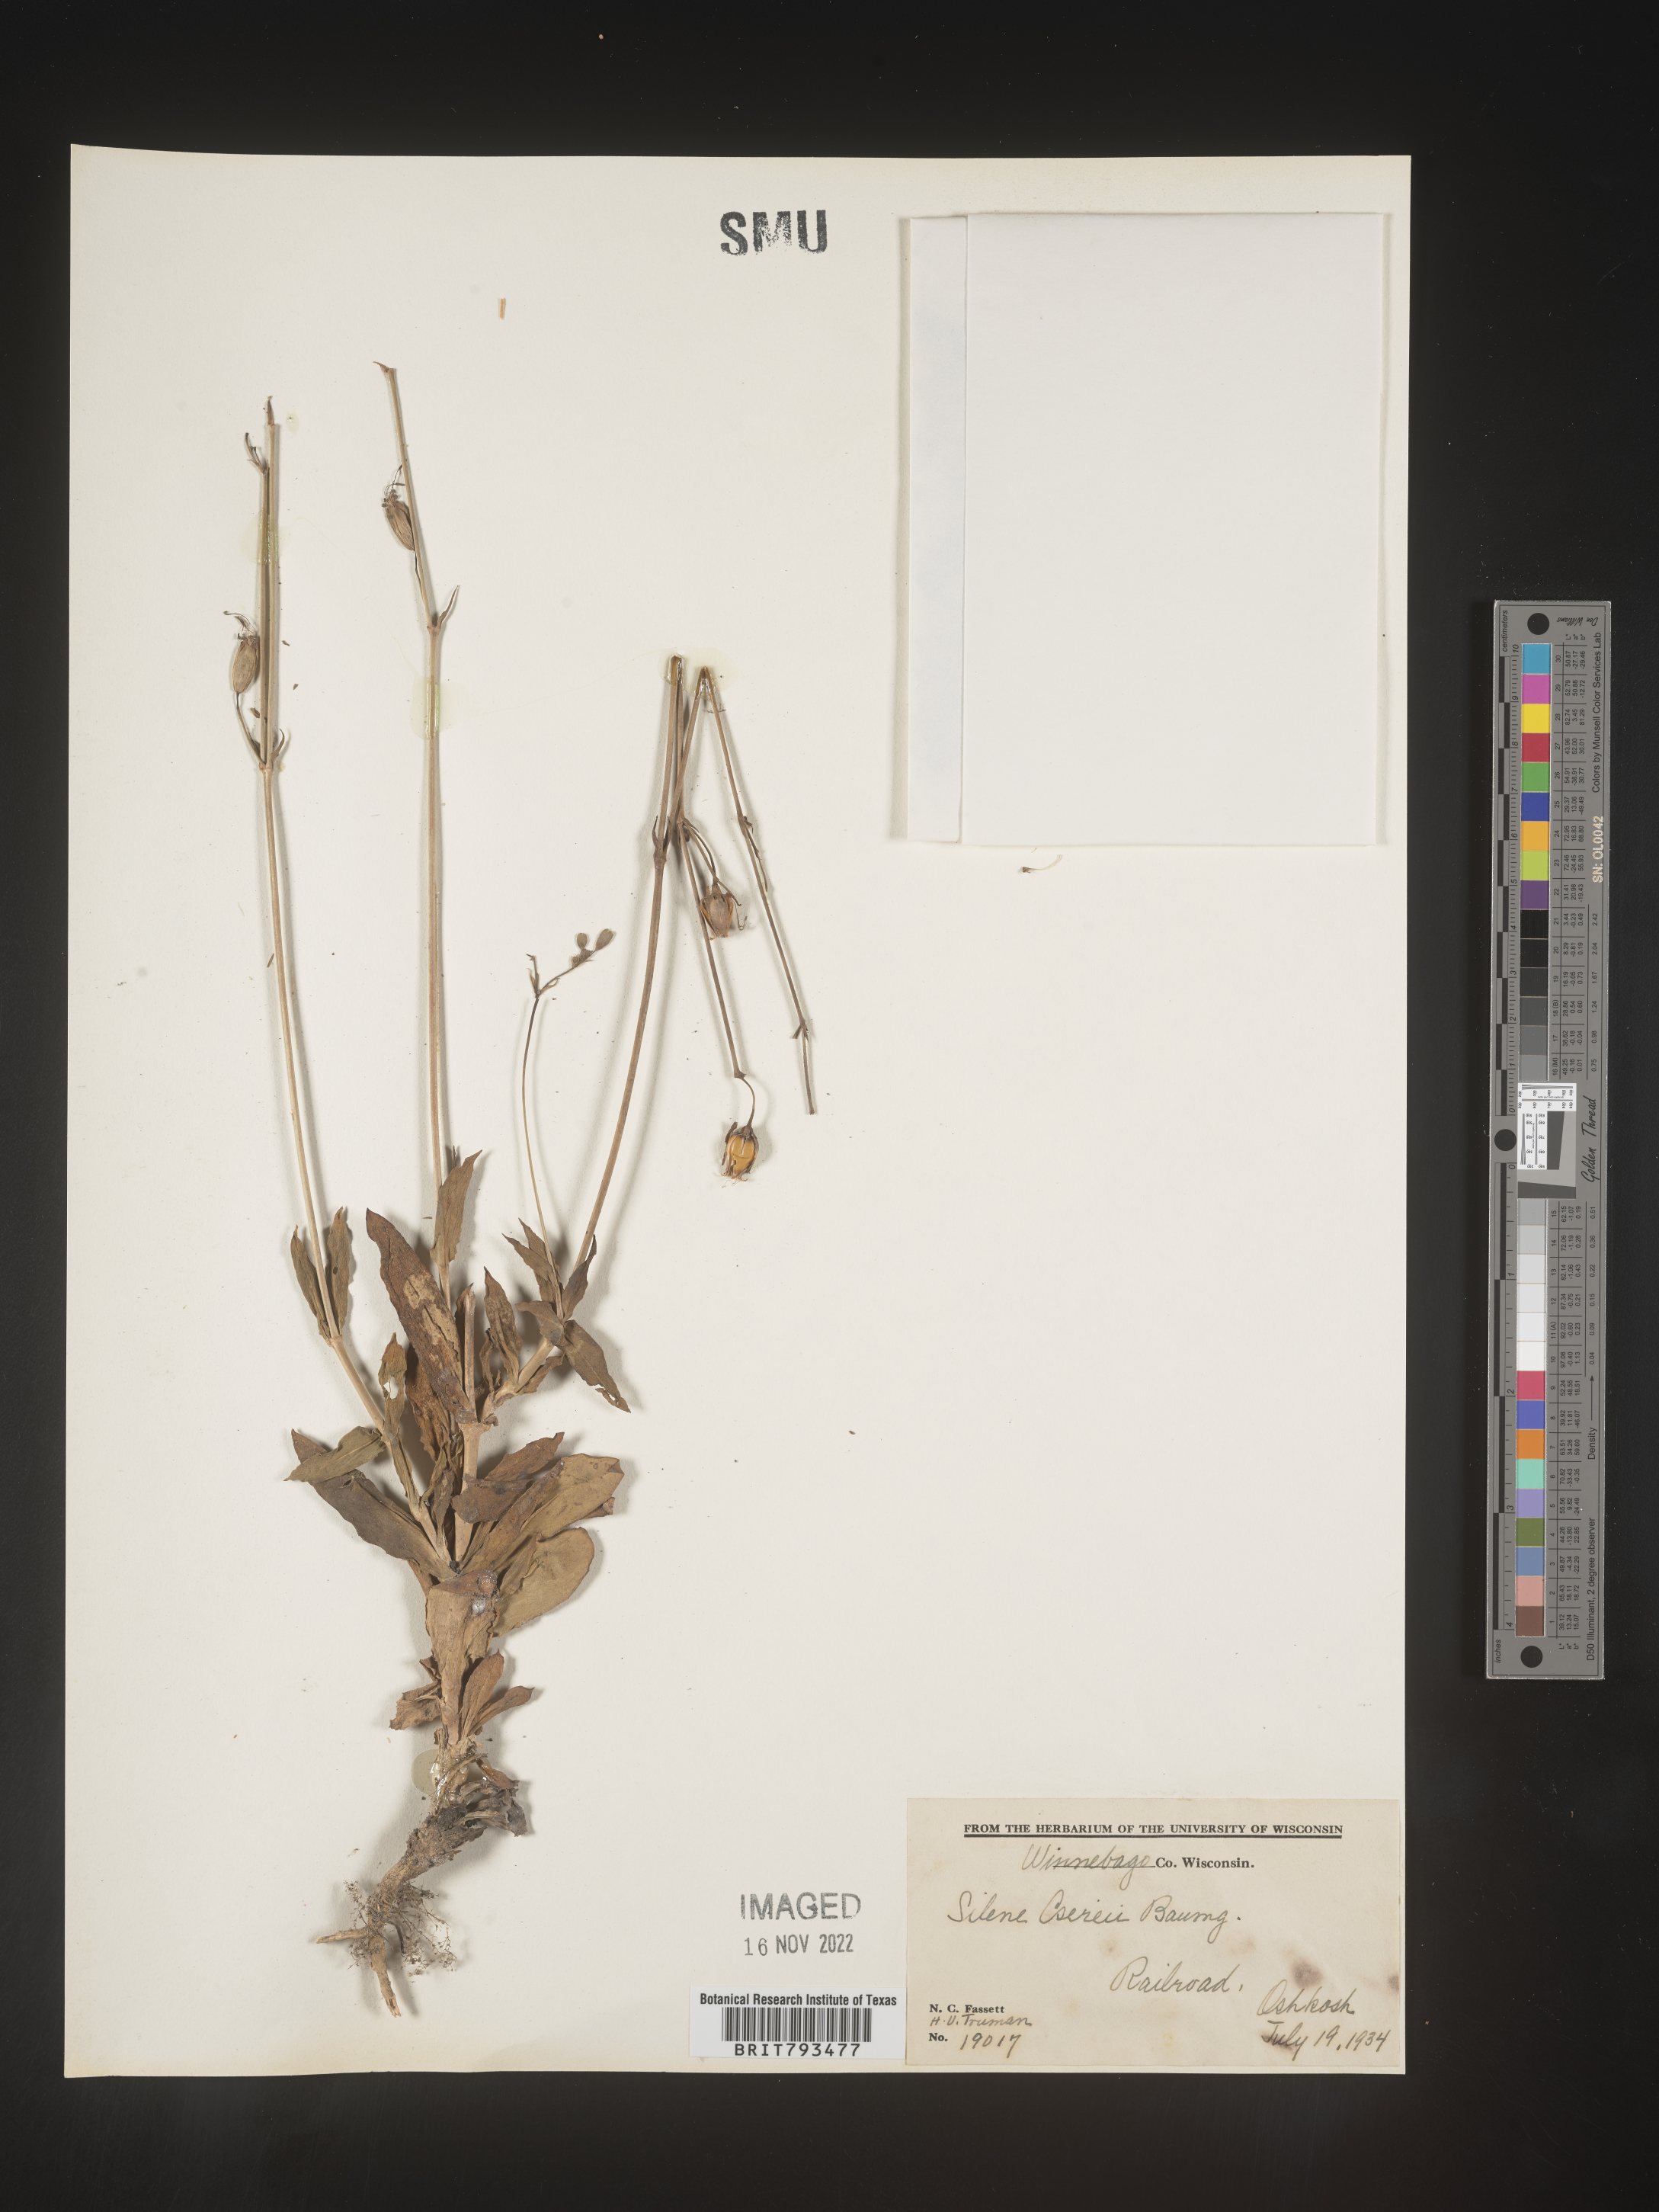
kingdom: Plantae
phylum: Tracheophyta
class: Magnoliopsida
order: Caryophyllales
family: Caryophyllaceae
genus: Silene
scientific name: Silene csereii
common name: Balkan catchfly
